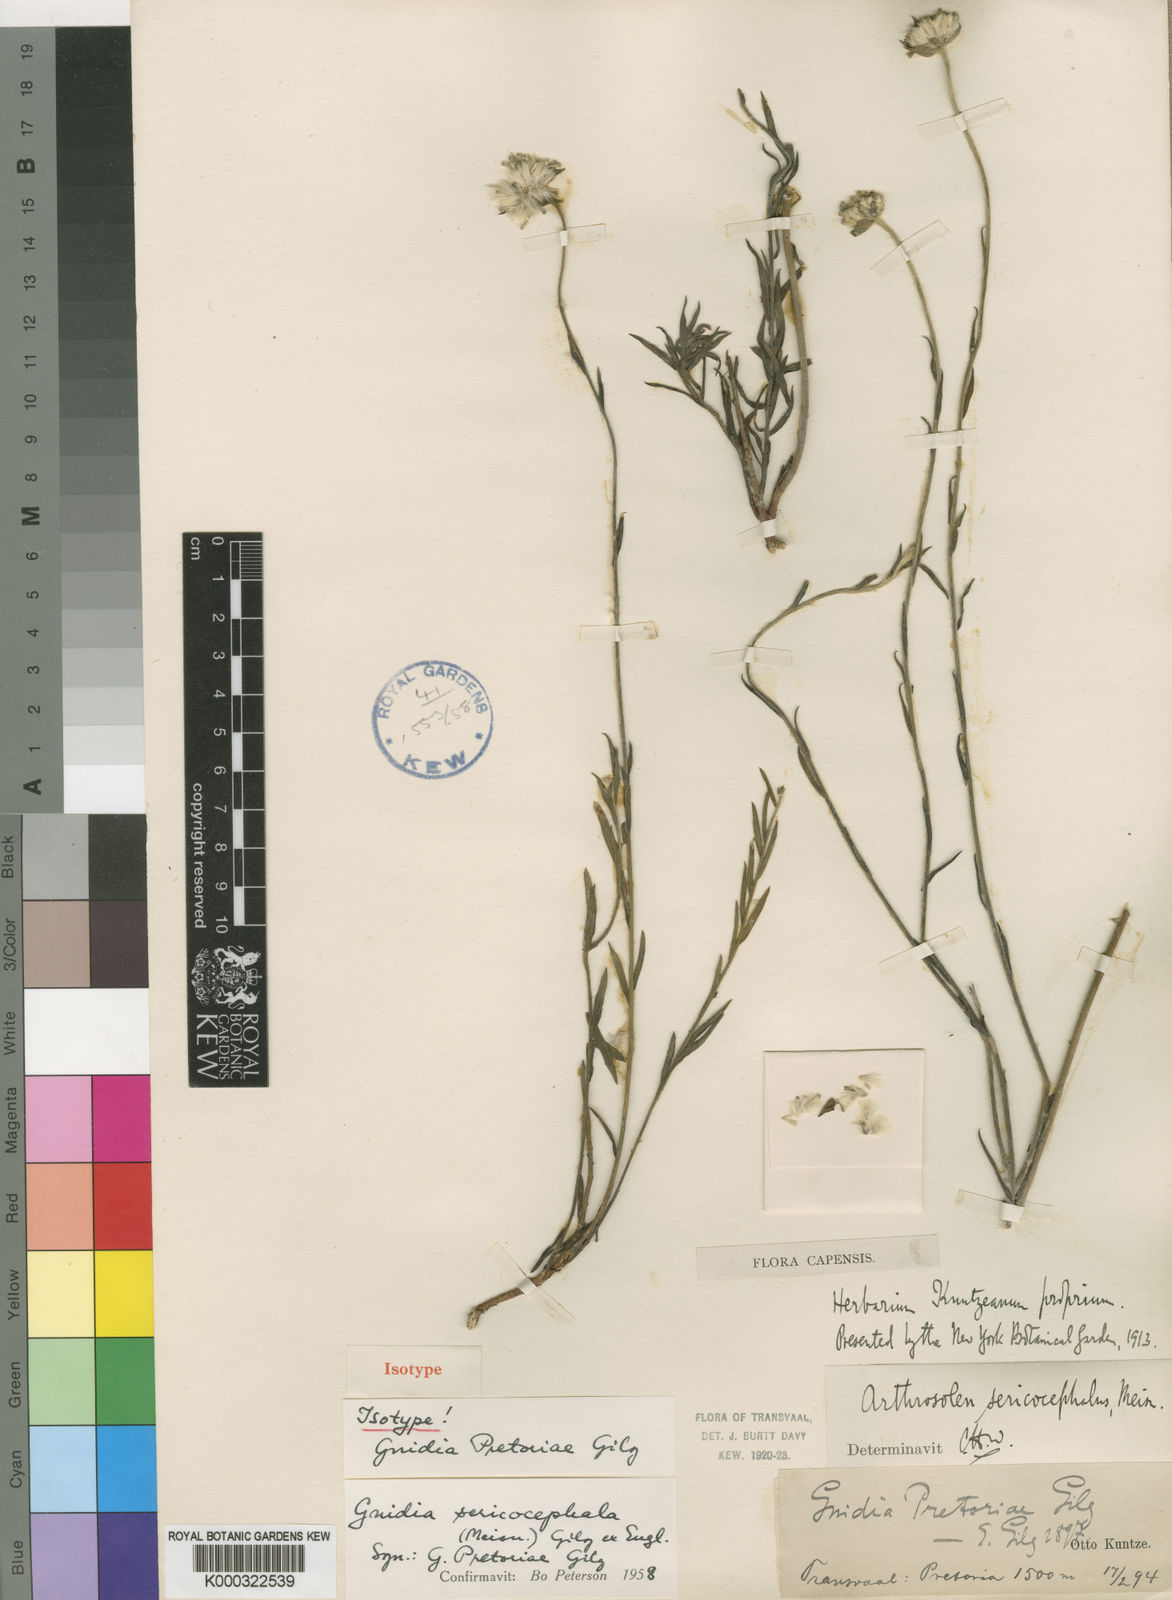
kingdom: Plantae
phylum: Tracheophyta
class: Magnoliopsida
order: Malvales
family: Thymelaeaceae
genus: Gnidia
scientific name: Gnidia
